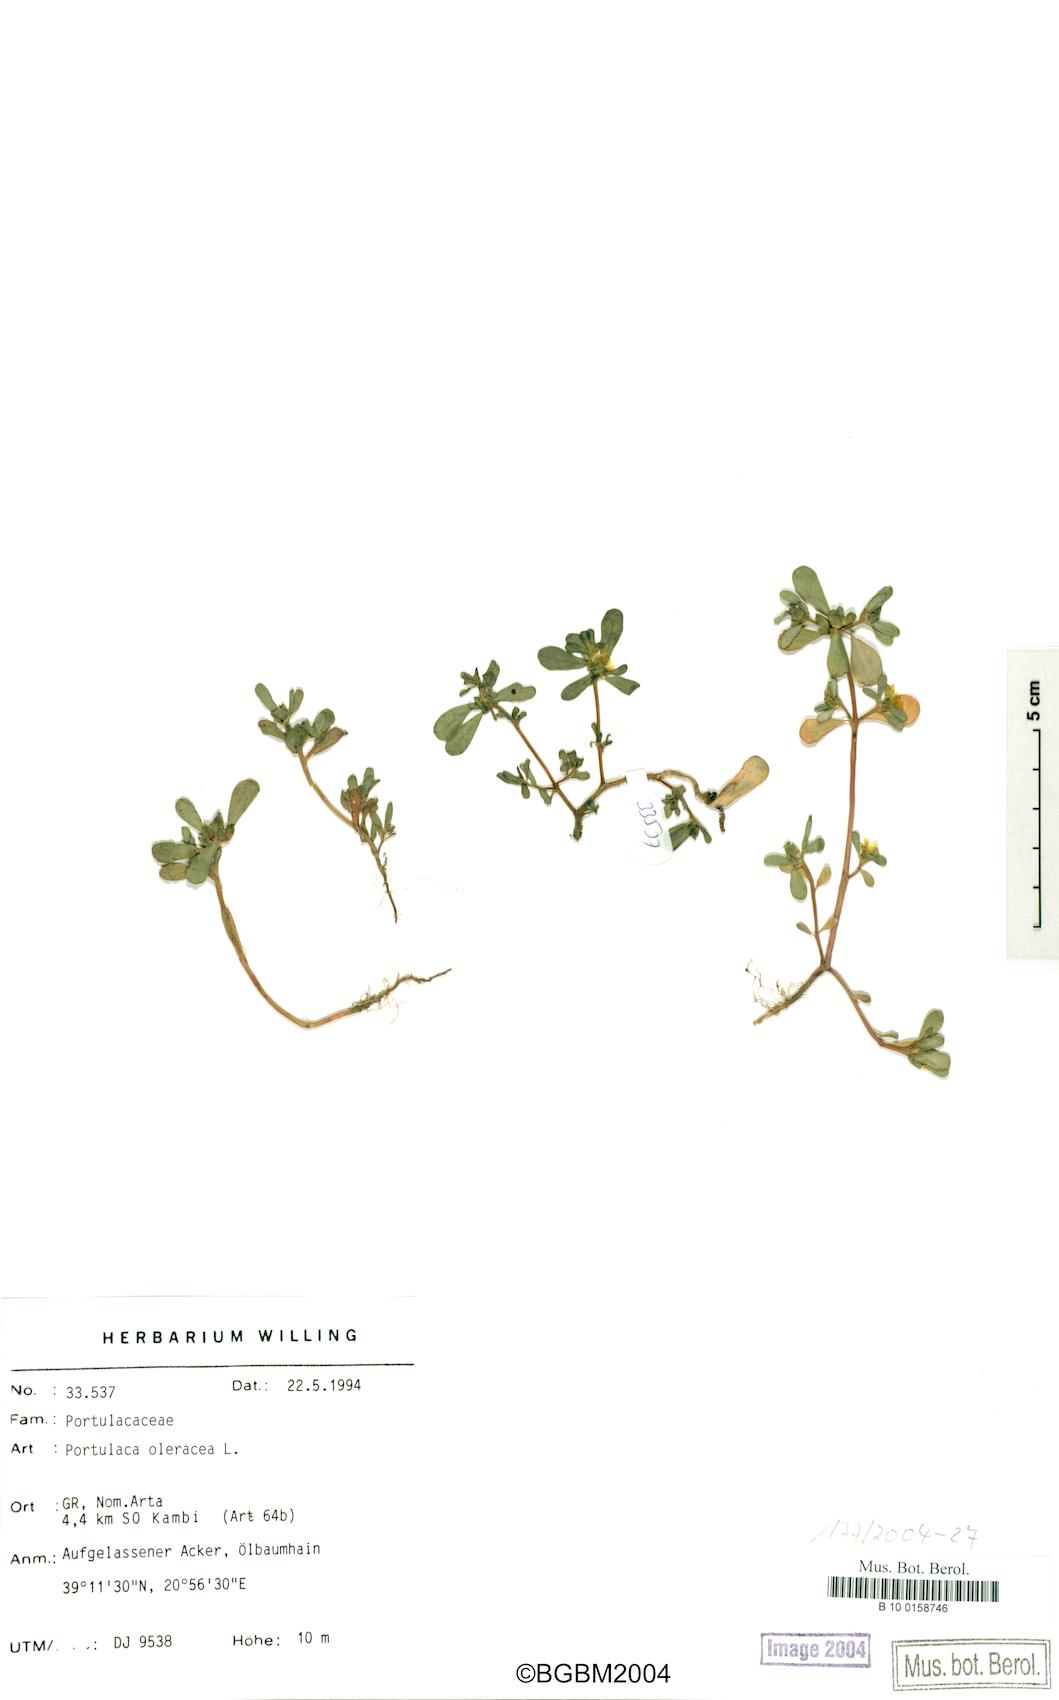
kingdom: Plantae
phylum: Tracheophyta
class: Magnoliopsida
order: Caryophyllales
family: Portulacaceae
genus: Portulaca
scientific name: Portulaca oleracea
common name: Common purslane
